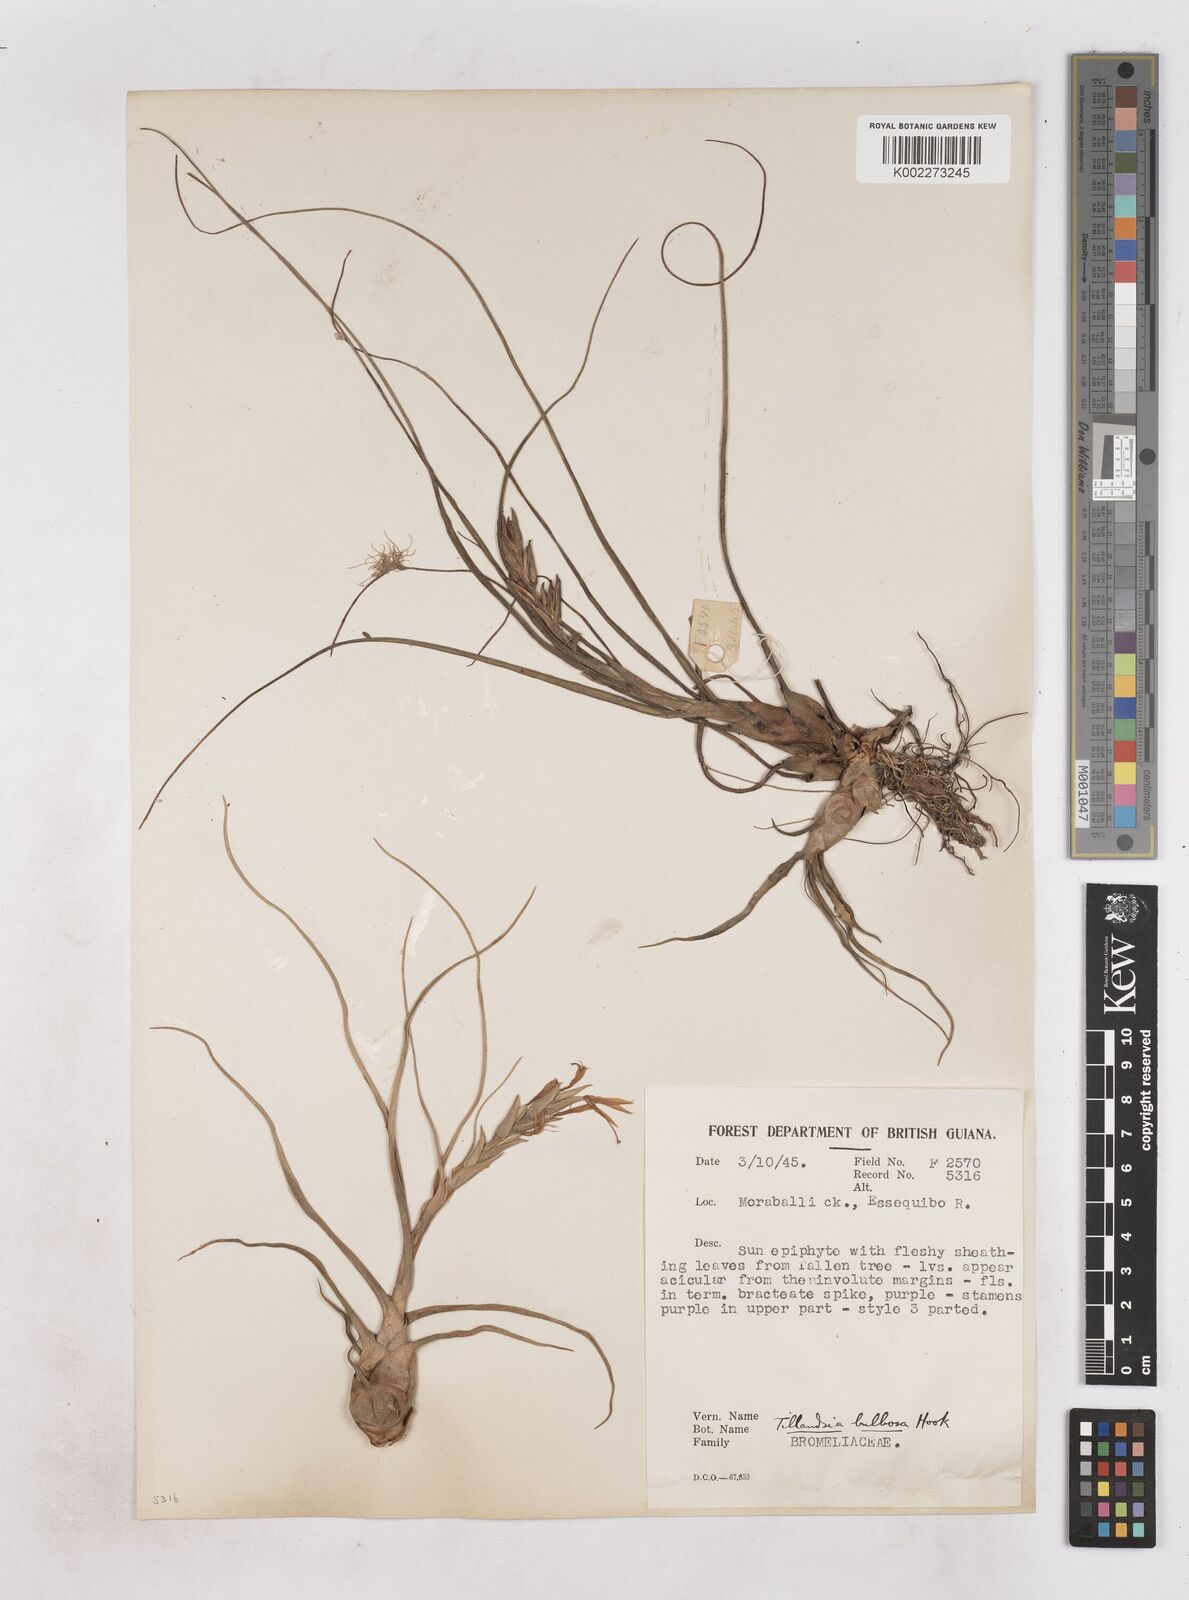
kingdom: Plantae
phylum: Tracheophyta
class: Liliopsida
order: Poales
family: Bromeliaceae
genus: Tillandsia
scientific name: Tillandsia bulbosa
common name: Bulbous airplant
